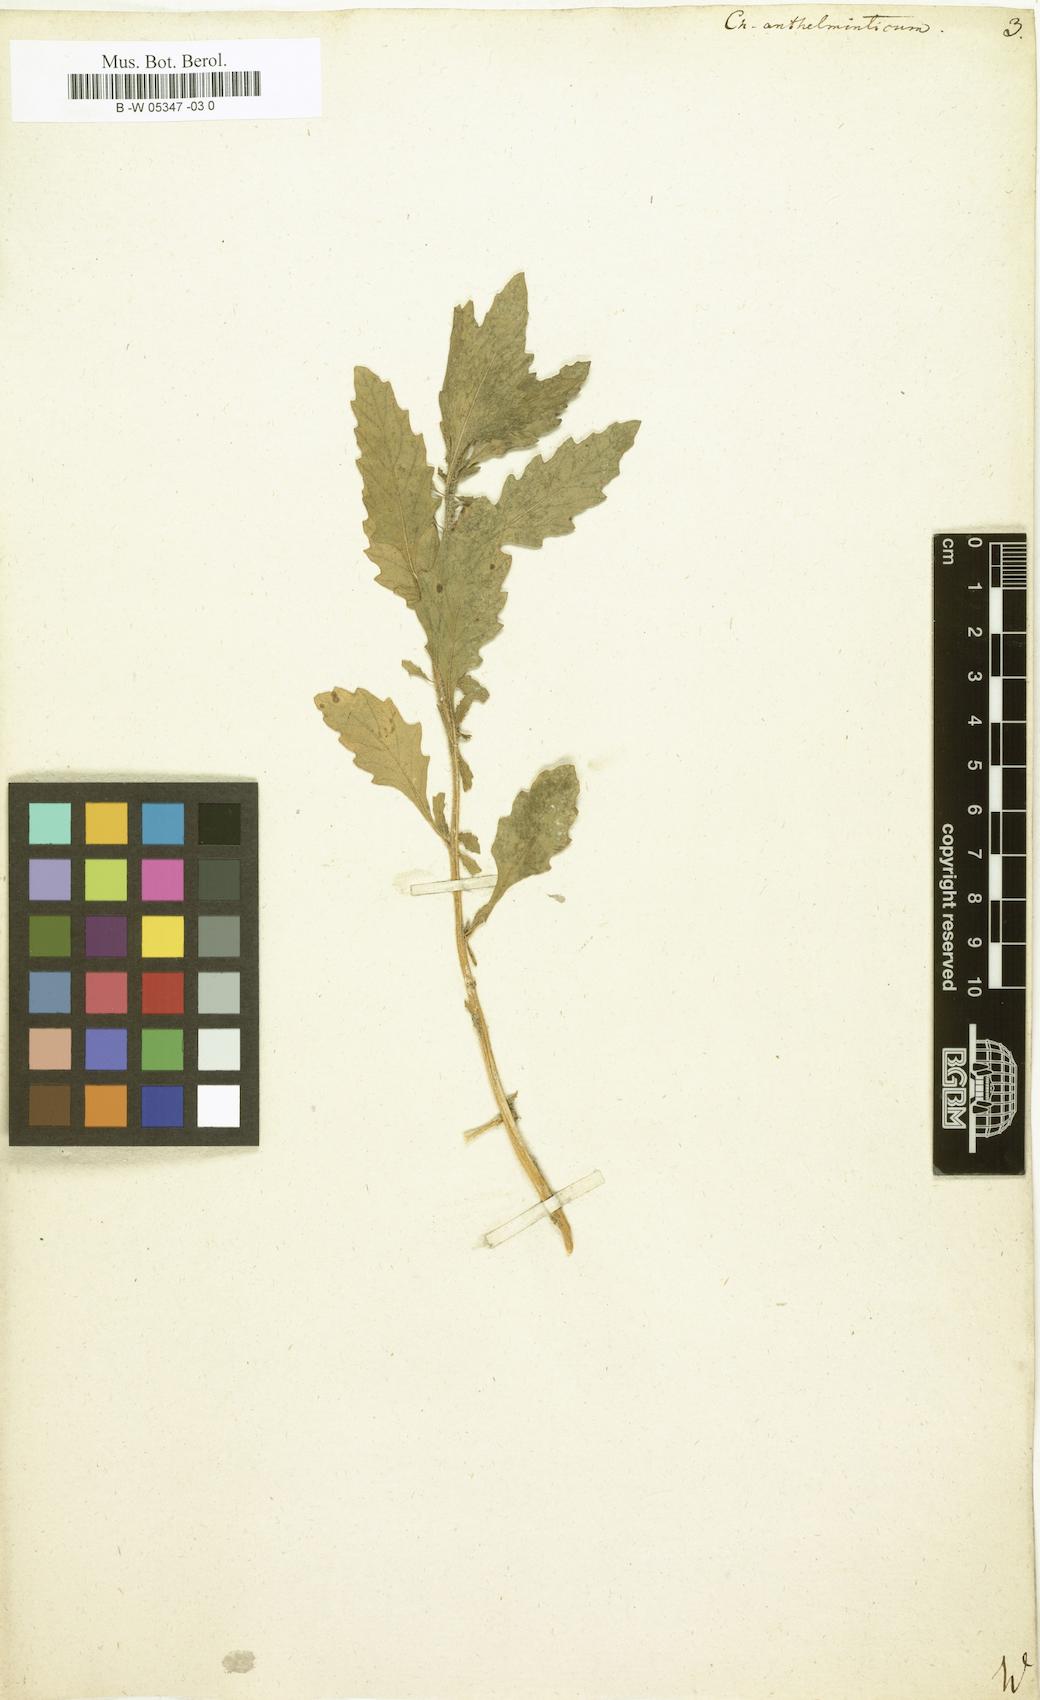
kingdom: Plantae
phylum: Tracheophyta
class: Magnoliopsida
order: Caryophyllales
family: Amaranthaceae
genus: Dysphania
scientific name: Dysphania anthelmintica
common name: Wormseed
